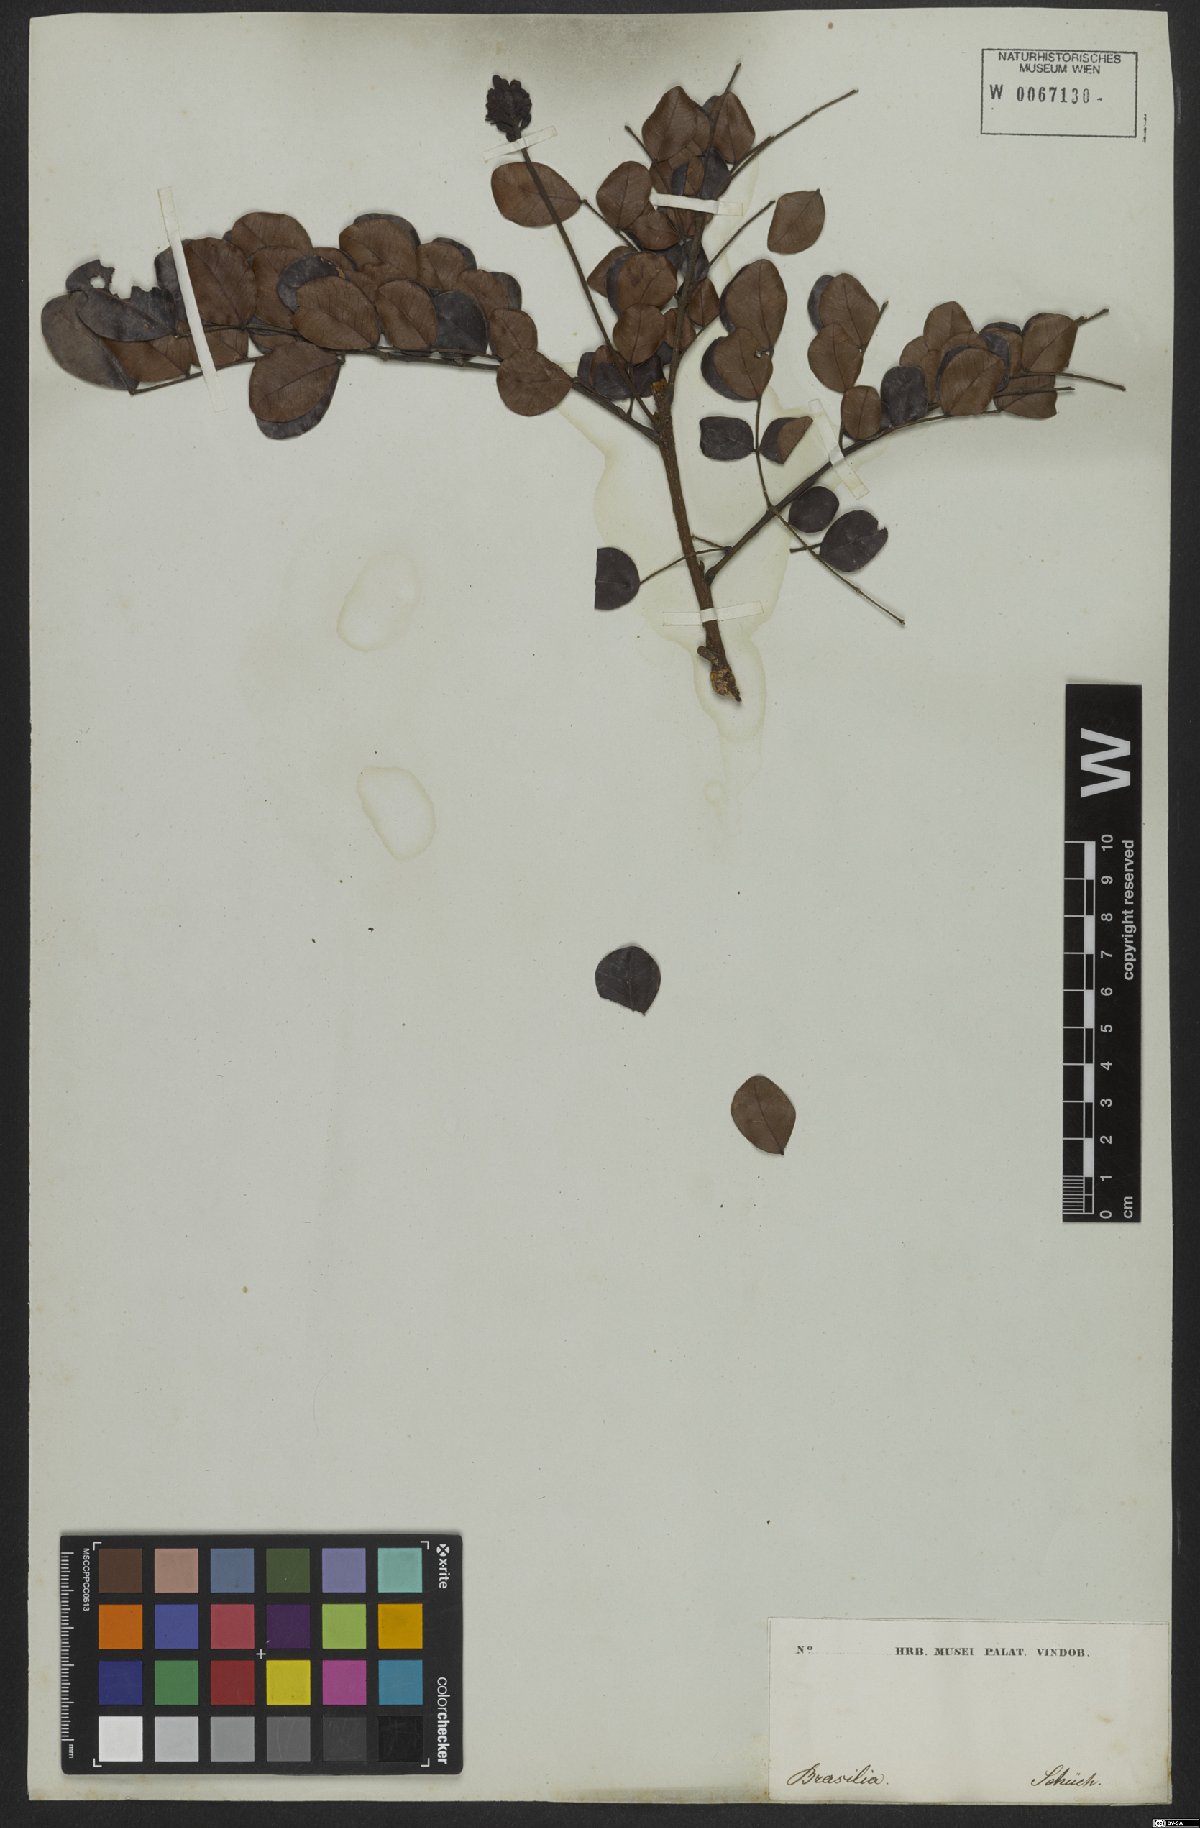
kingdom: Plantae
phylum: Tracheophyta
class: Magnoliopsida
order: Fabales
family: Fabaceae
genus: Jupunba
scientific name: Jupunba brachystachya
